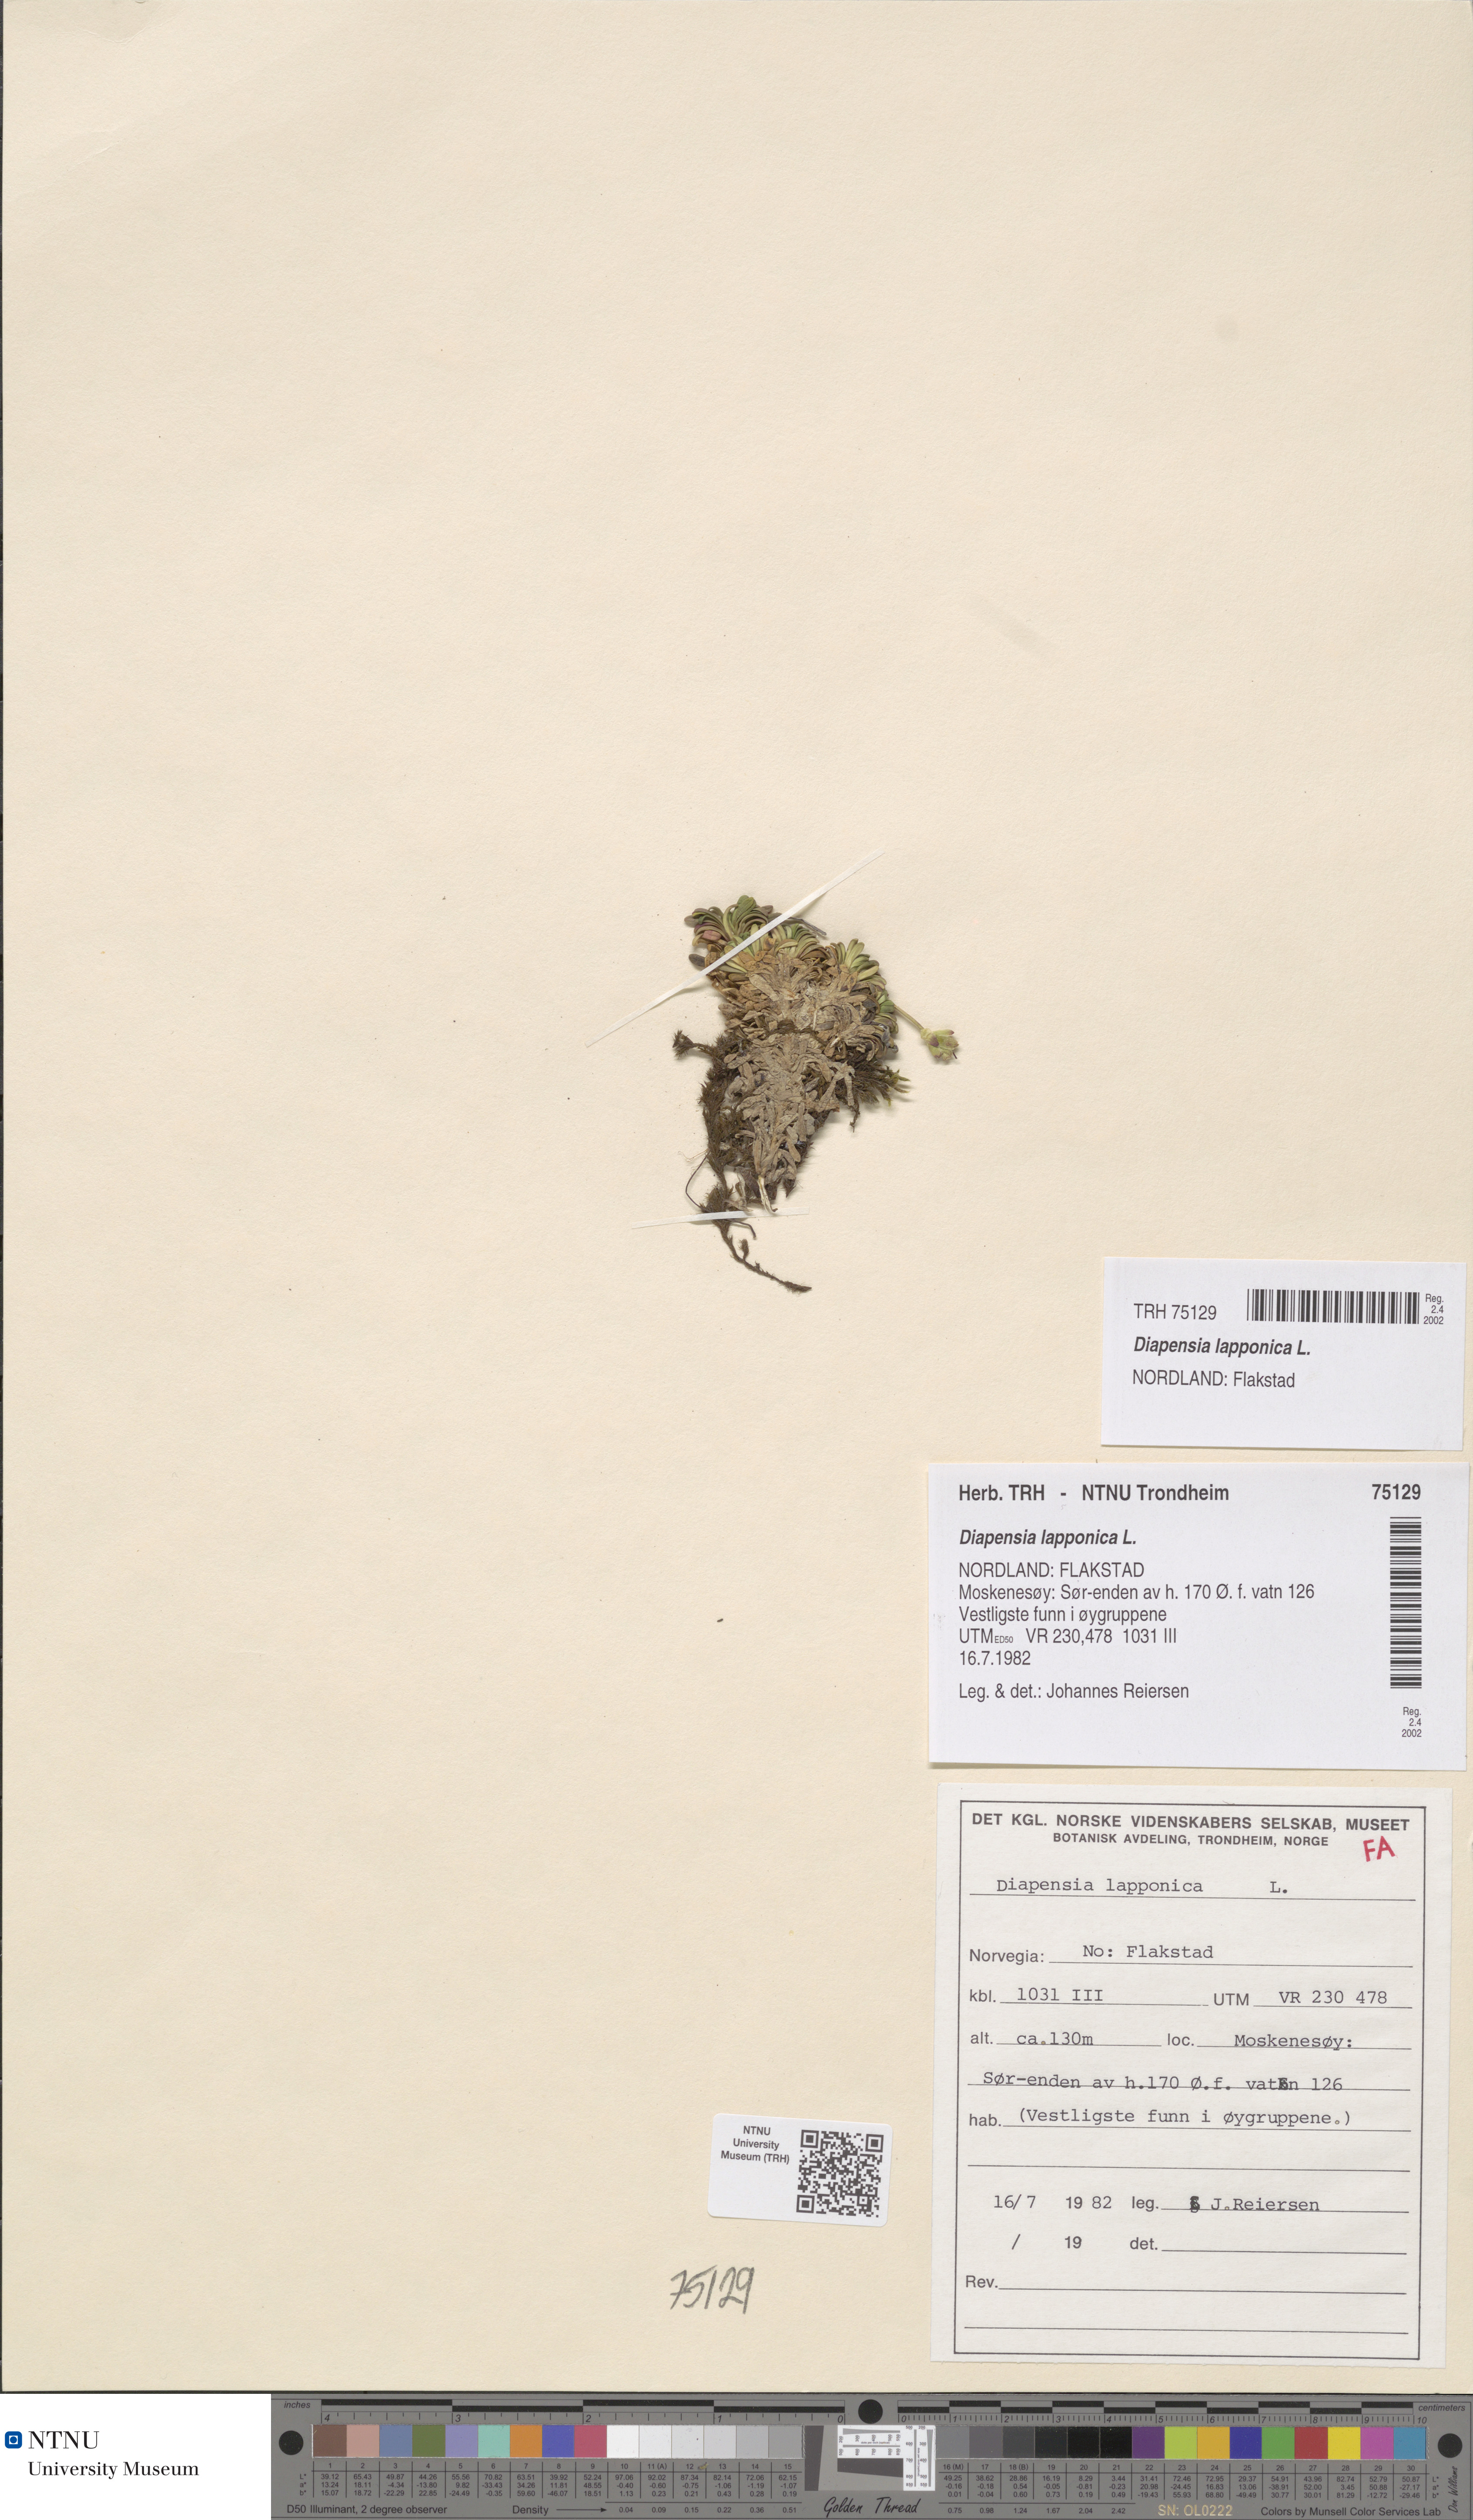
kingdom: Plantae
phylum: Tracheophyta
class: Magnoliopsida
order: Ericales
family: Diapensiaceae
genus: Diapensia
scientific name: Diapensia lapponica
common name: Diapensia
